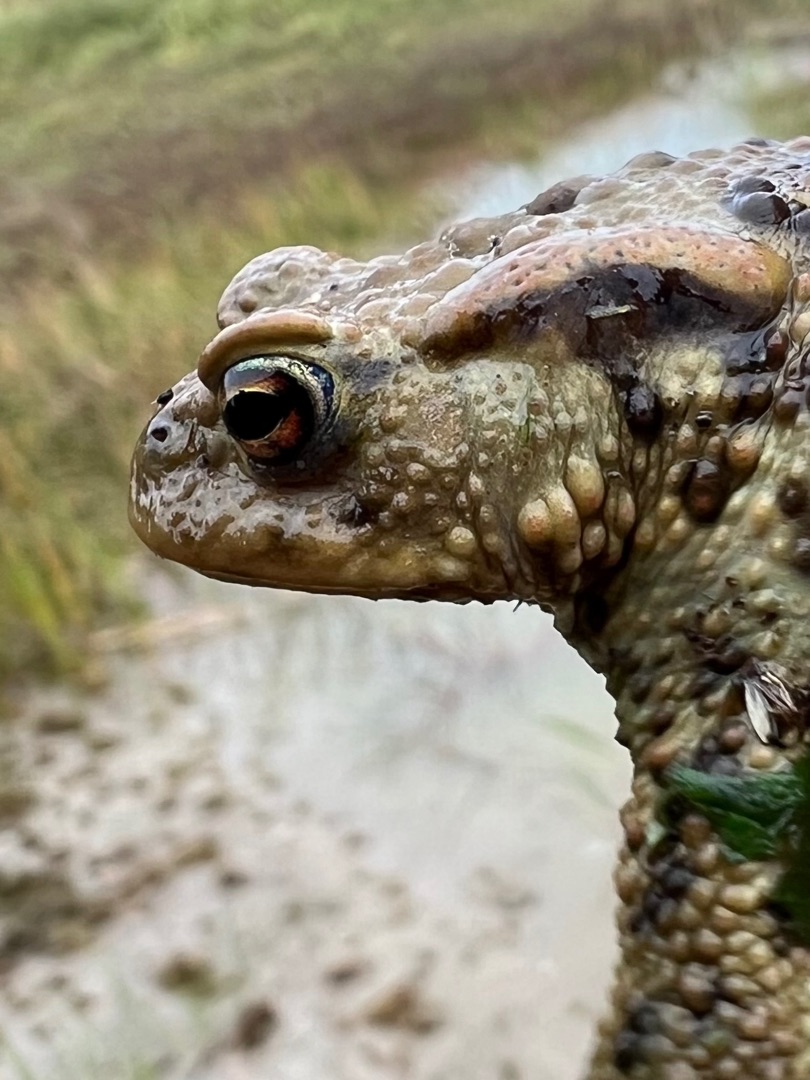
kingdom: Animalia
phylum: Chordata
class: Amphibia
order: Anura
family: Bufonidae
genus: Bufo
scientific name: Bufo bufo
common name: Skrubtudse
